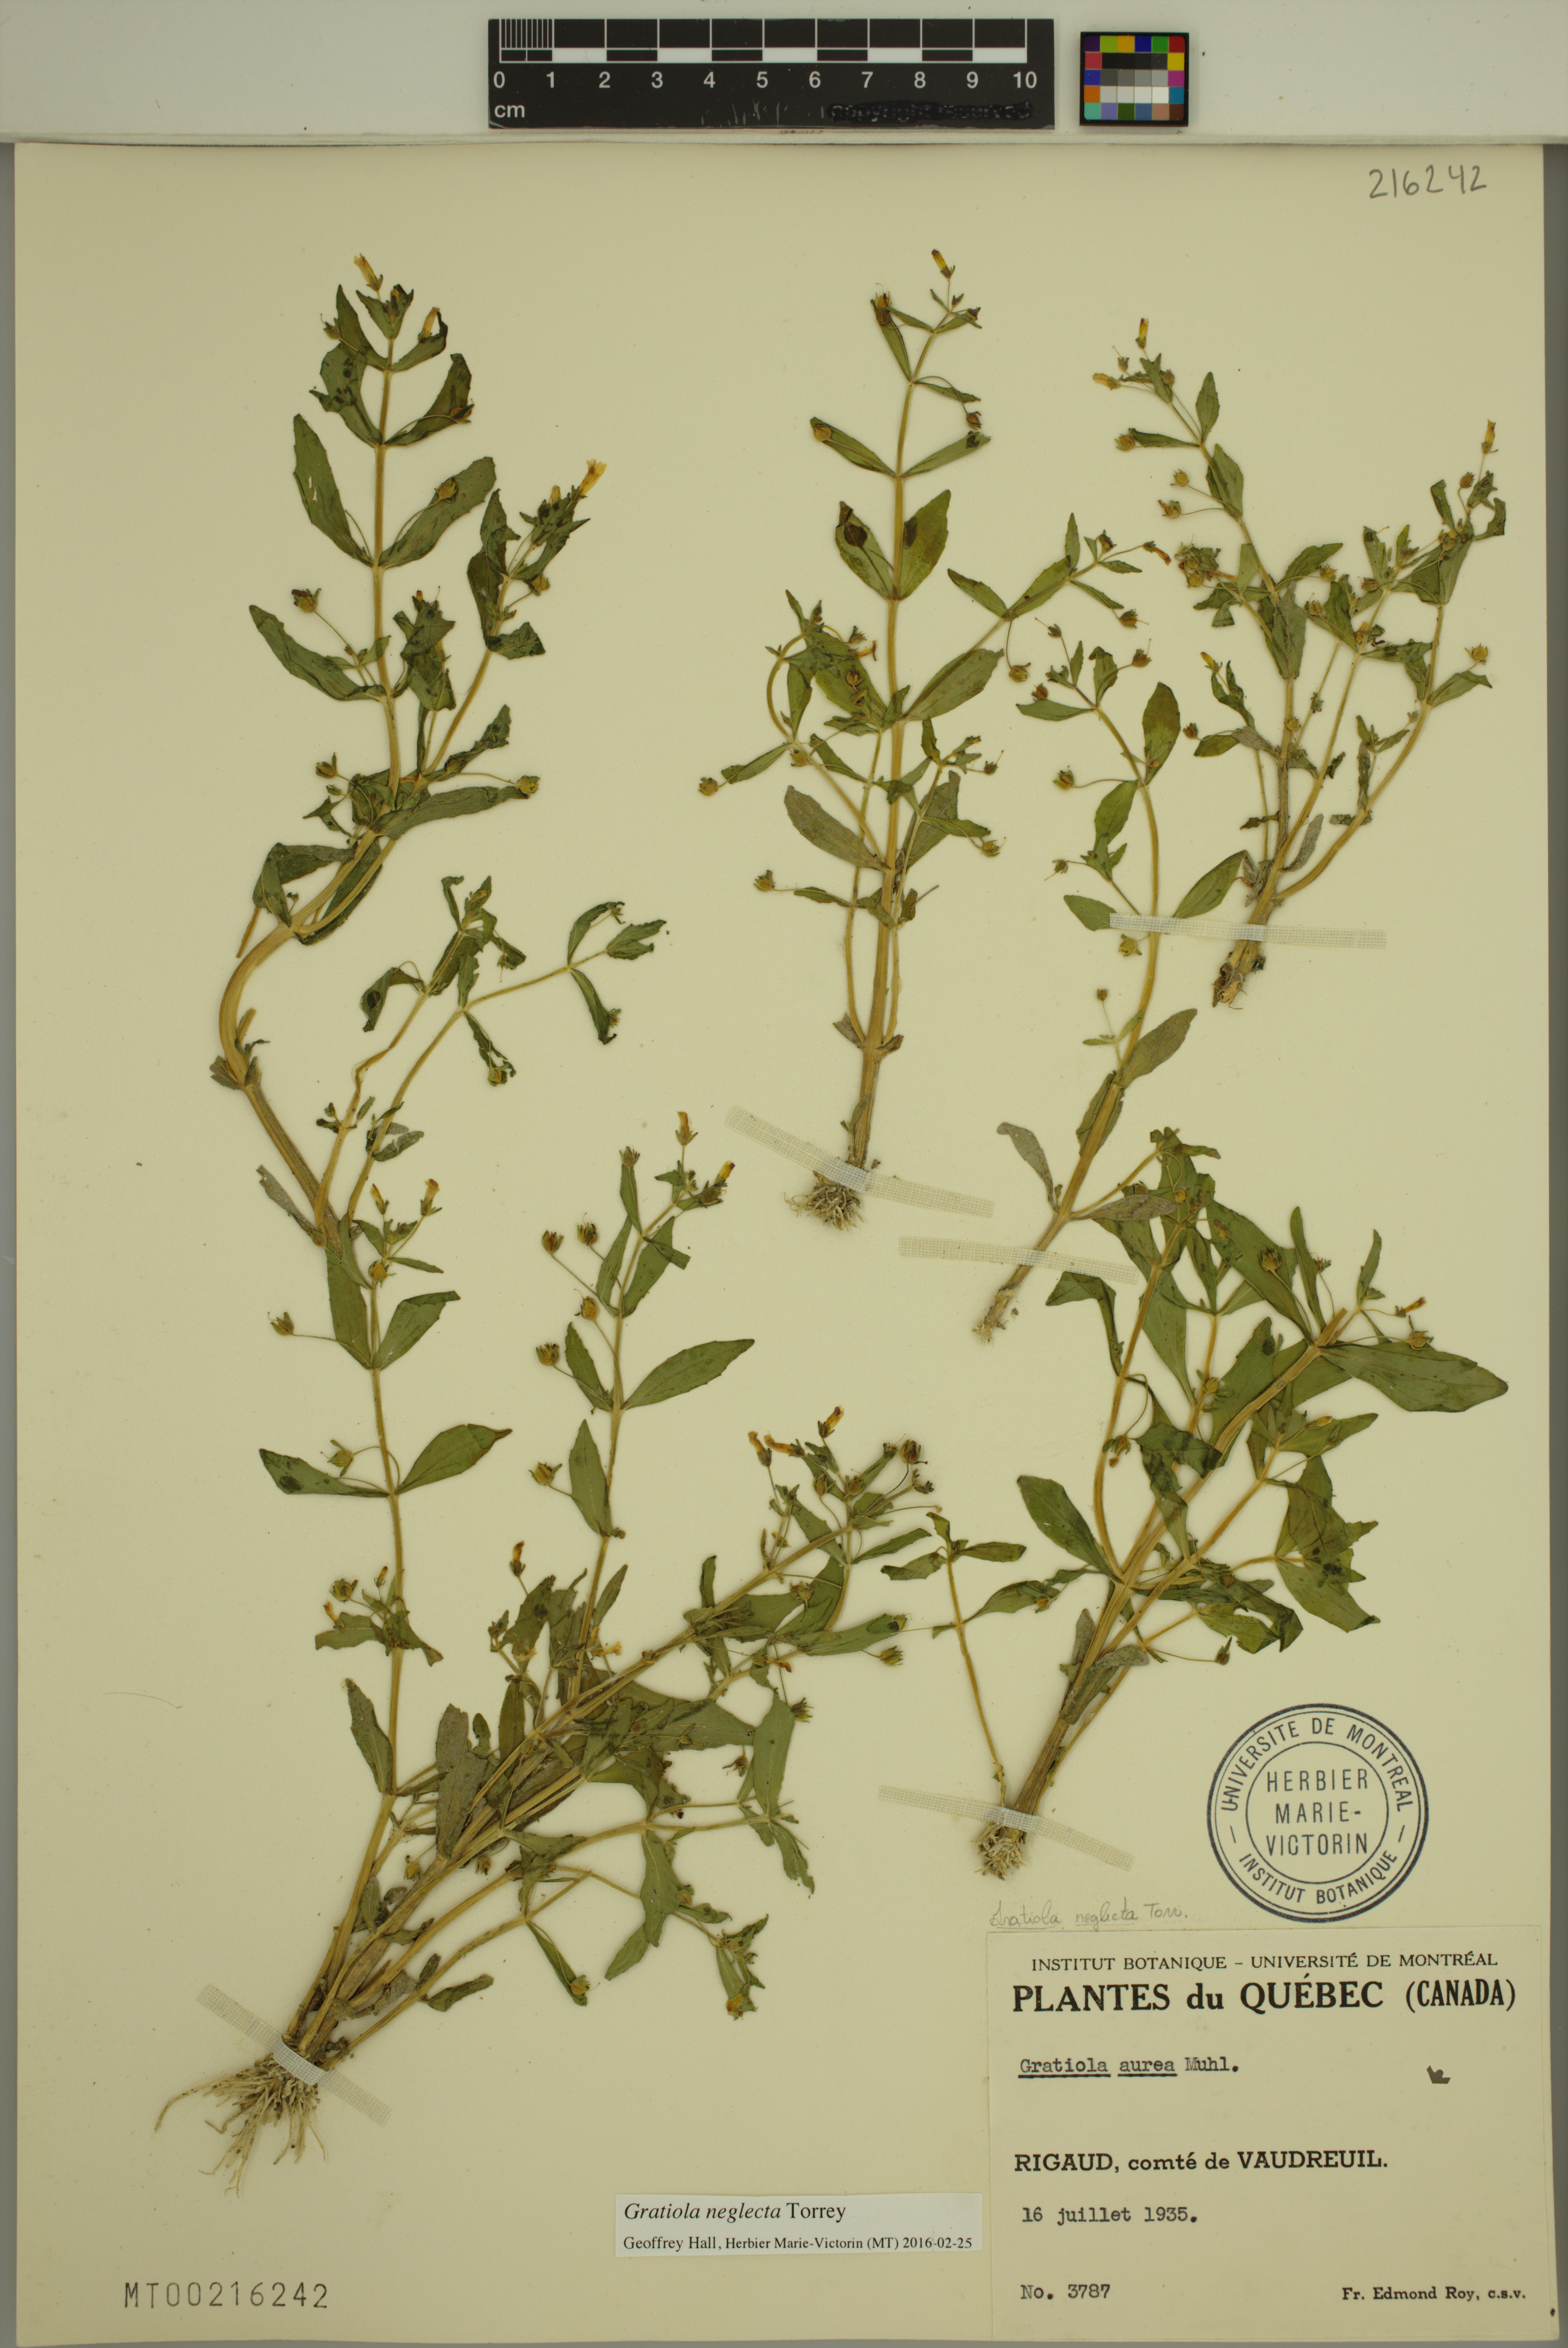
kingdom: Plantae
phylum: Tracheophyta
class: Magnoliopsida
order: Lamiales
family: Plantaginaceae
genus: Gratiola
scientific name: Gratiola neglecta
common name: American hedge-hyssop
